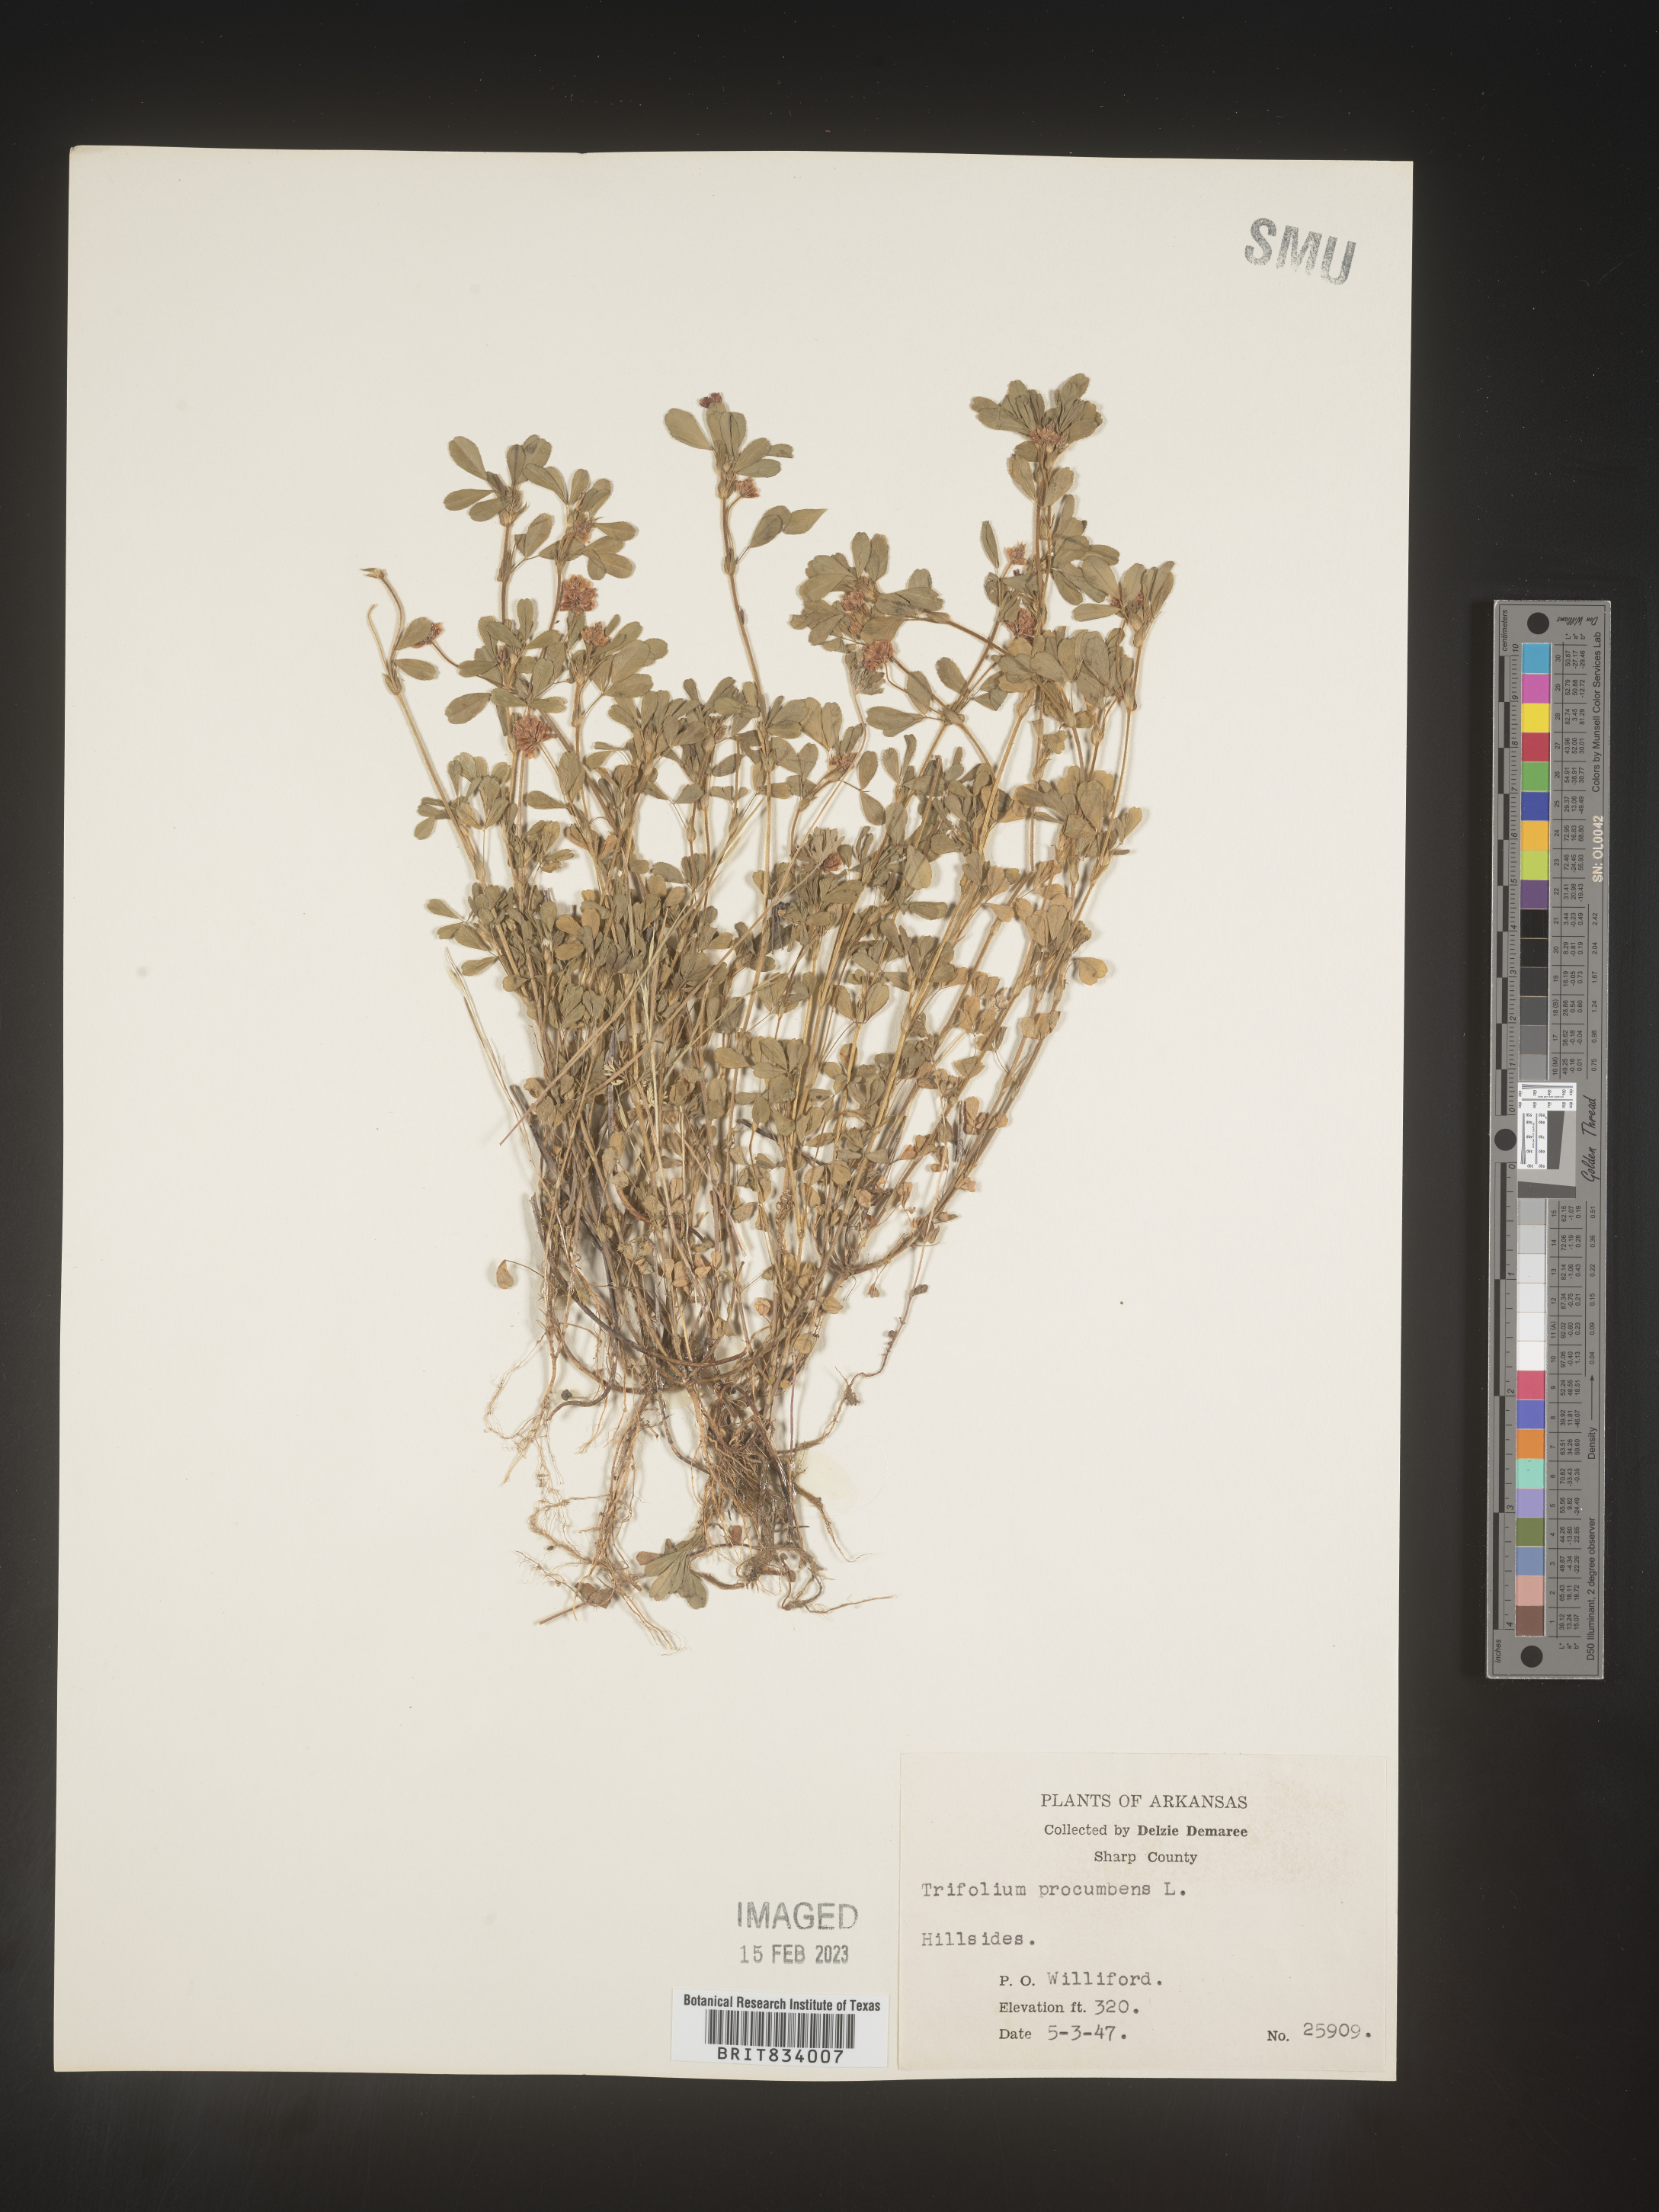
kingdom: Plantae
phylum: Tracheophyta
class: Magnoliopsida
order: Fabales
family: Fabaceae
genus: Trifolium
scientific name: Trifolium campestre
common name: Field clover
